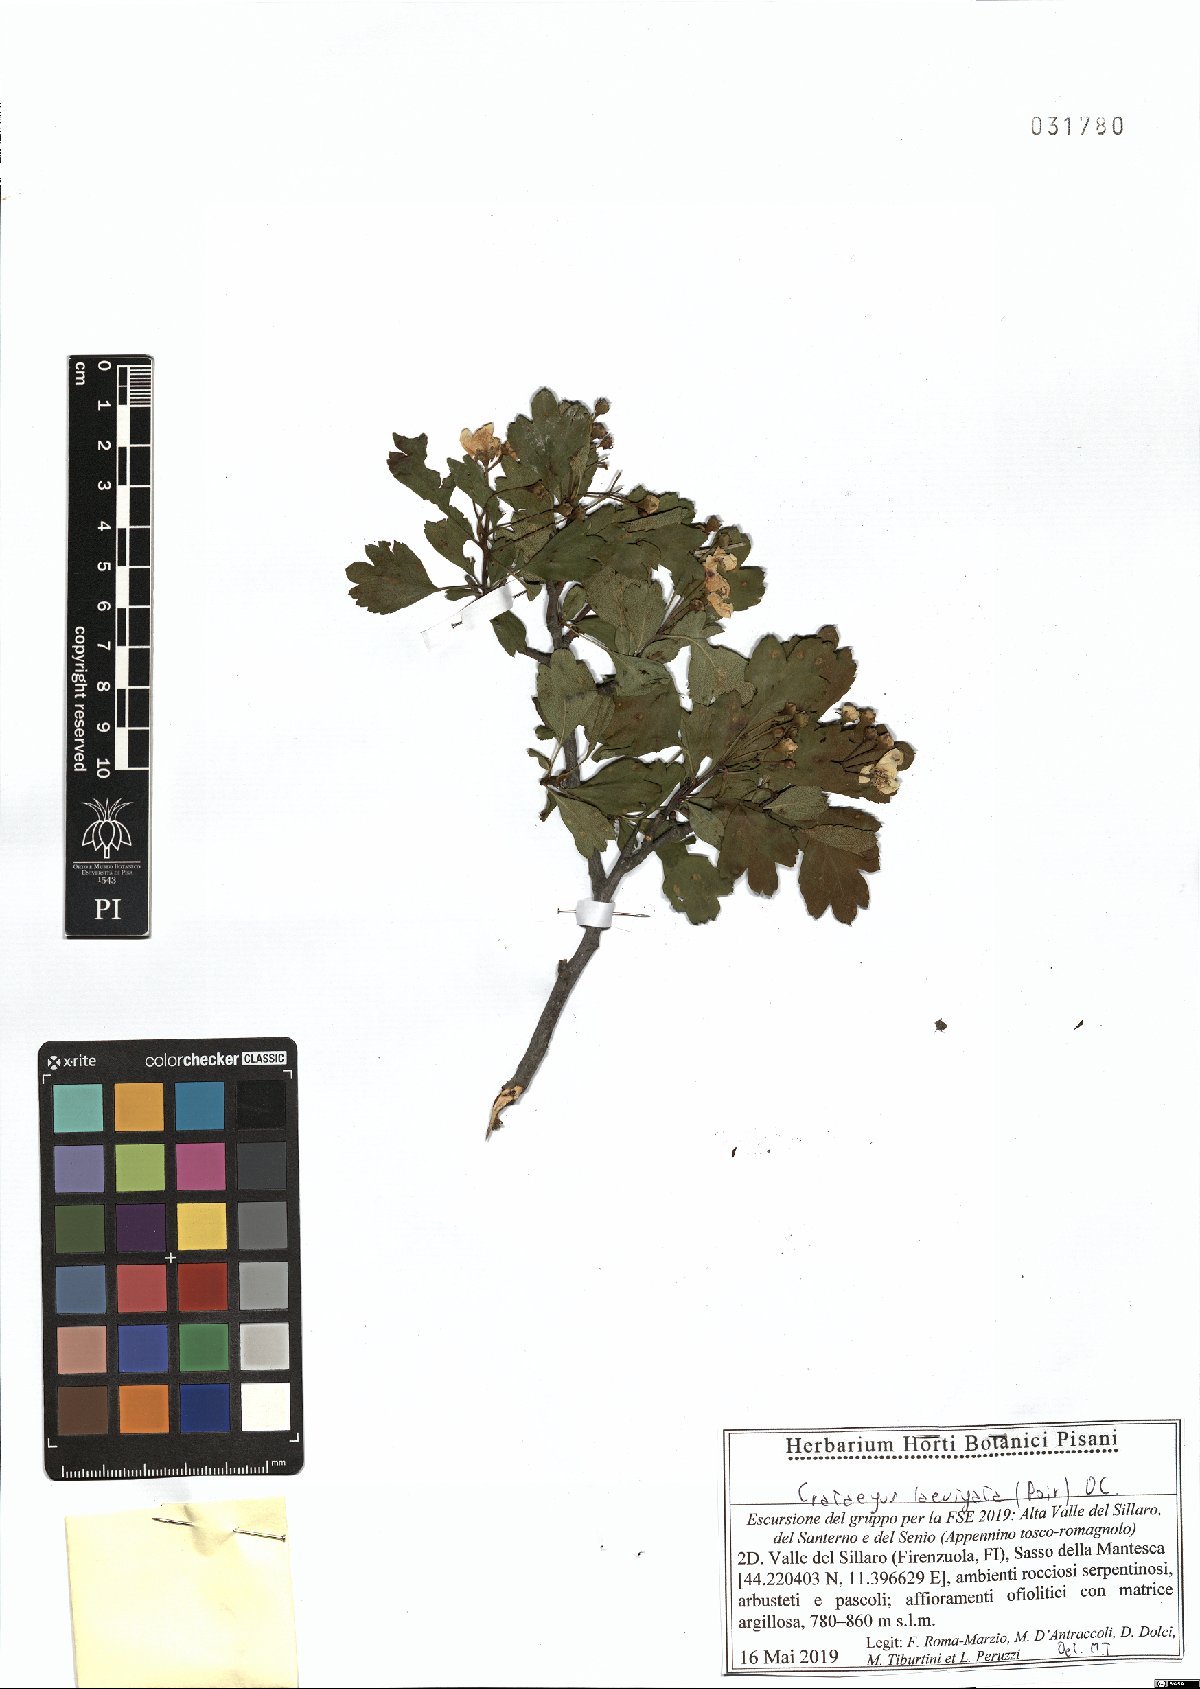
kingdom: Plantae
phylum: Tracheophyta
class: Magnoliopsida
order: Rosales
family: Rosaceae
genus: Crataegus
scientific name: Crataegus laevigata
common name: Midland hawthorn
